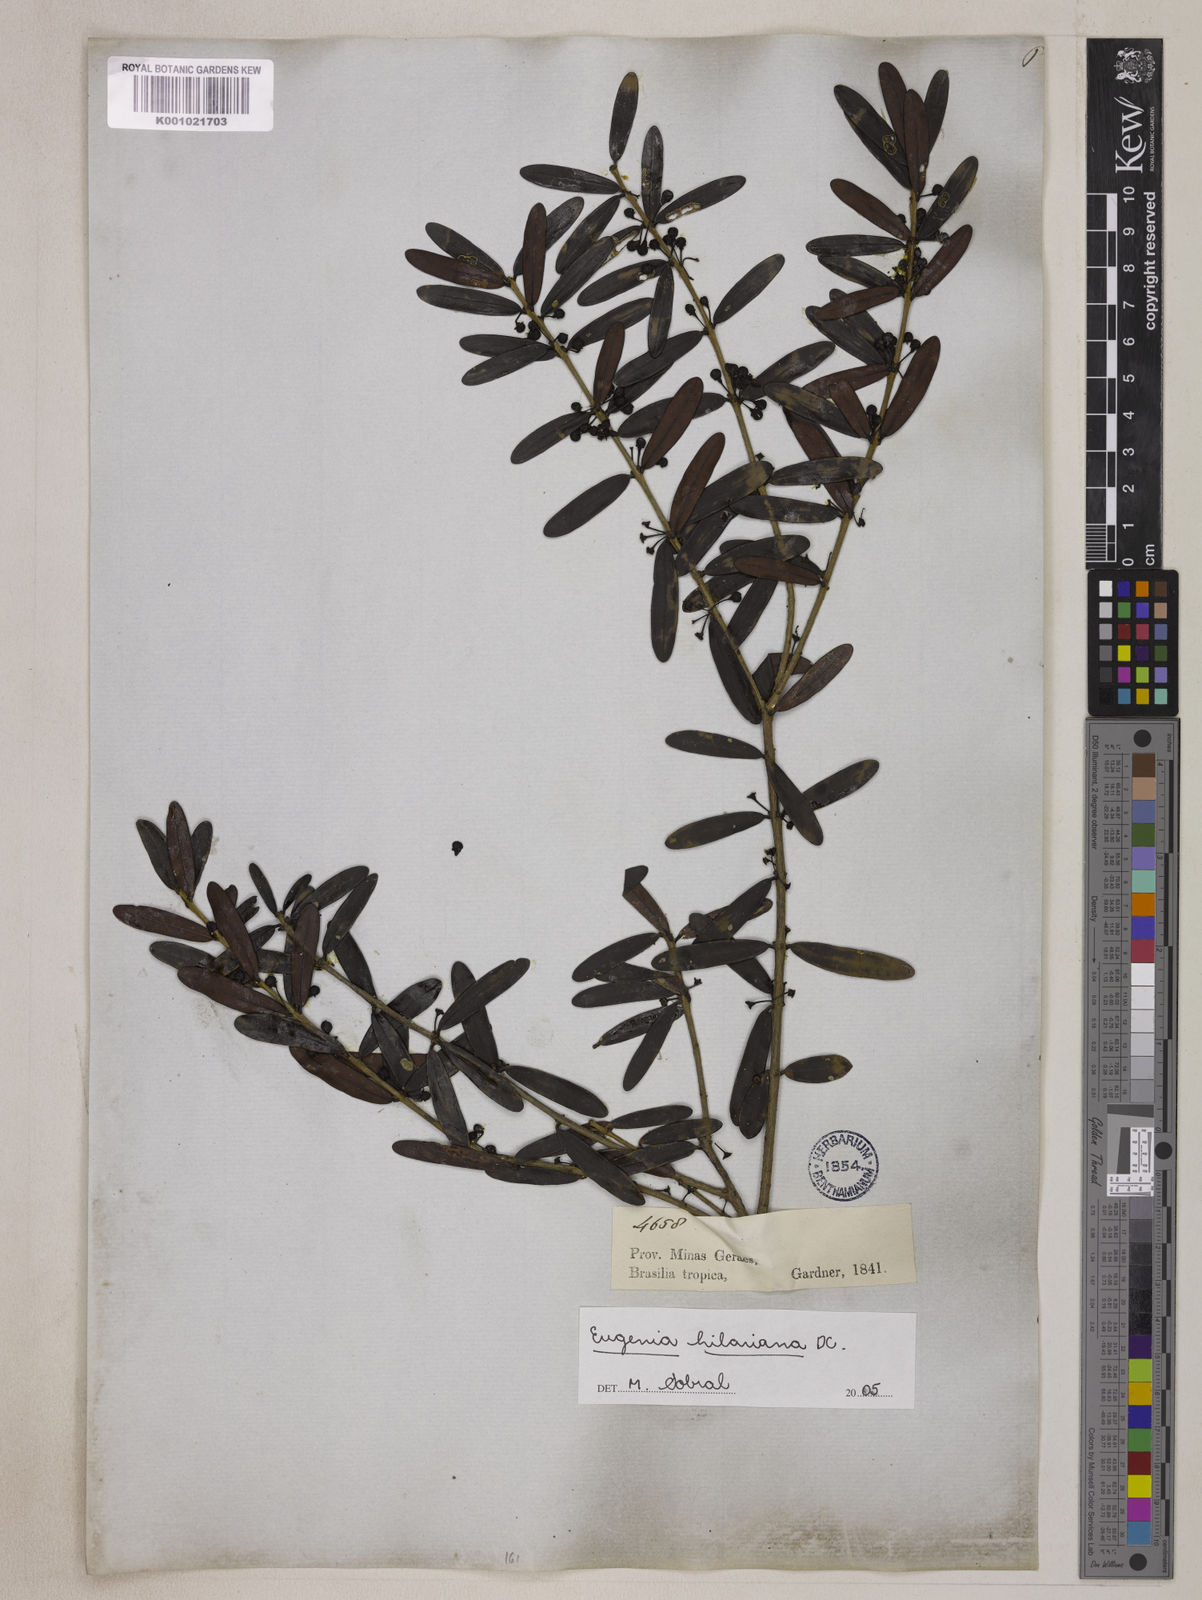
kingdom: Plantae
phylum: Tracheophyta
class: Magnoliopsida
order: Myrtales
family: Myrtaceae
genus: Eugenia
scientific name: Eugenia hilariana
